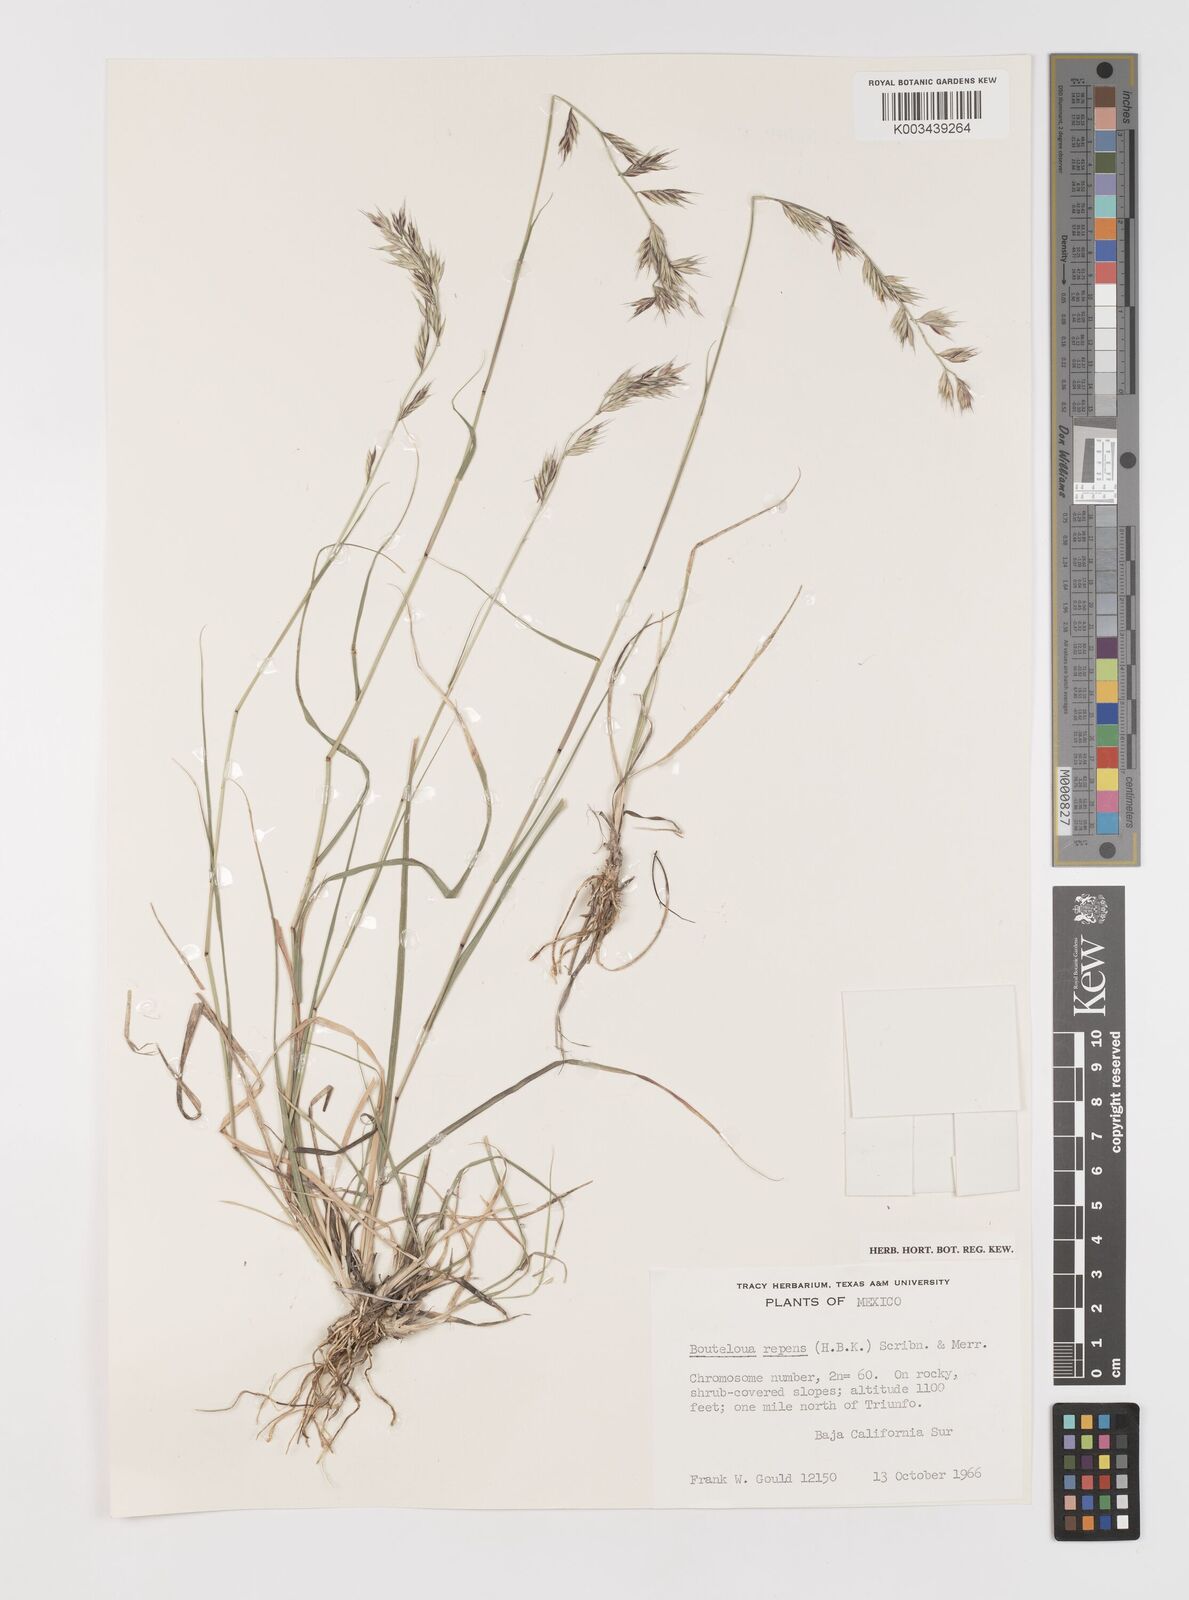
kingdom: Plantae
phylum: Tracheophyta
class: Liliopsida
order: Poales
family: Poaceae
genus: Bouteloua
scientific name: Bouteloua repens
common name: Slender grama
